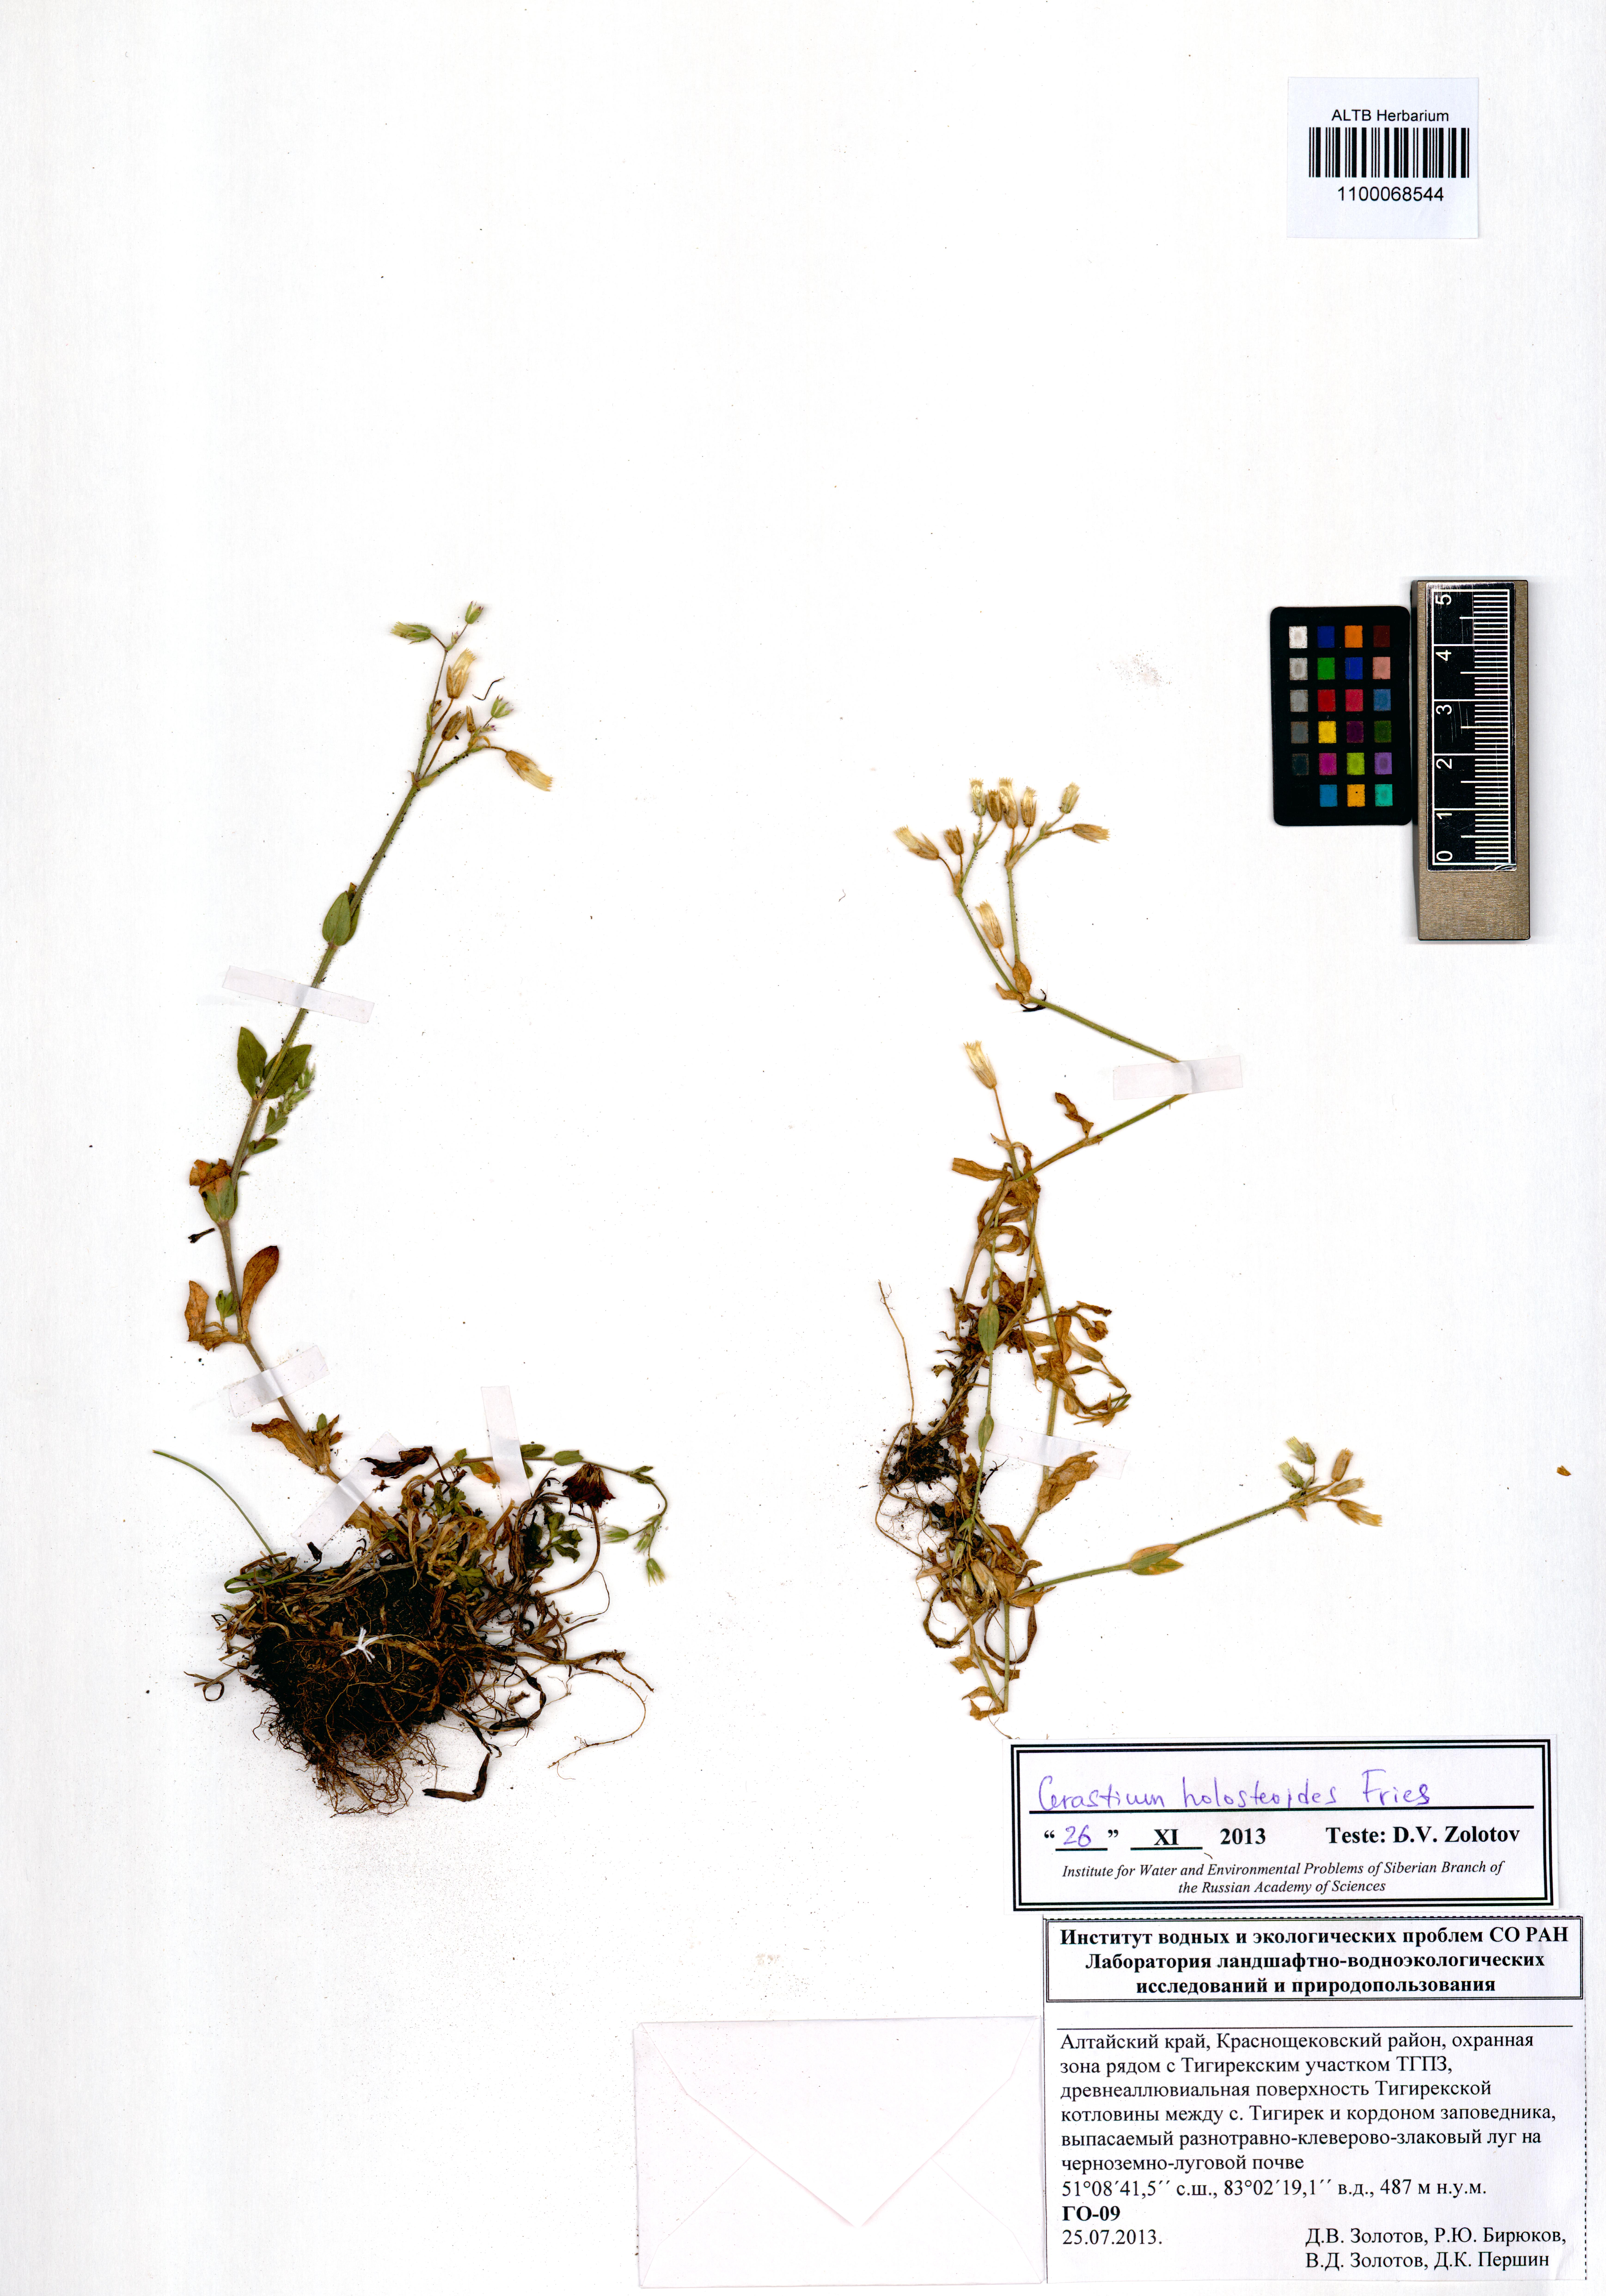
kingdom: Plantae
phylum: Tracheophyta
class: Magnoliopsida
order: Caryophyllales
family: Caryophyllaceae
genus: Cerastium
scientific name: Cerastium holosteoides
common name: Big chickweed
